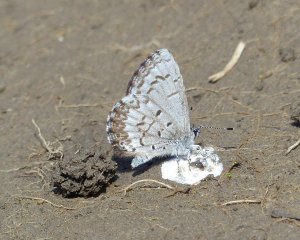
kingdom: Animalia
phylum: Arthropoda
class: Insecta
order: Lepidoptera
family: Lycaenidae
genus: Celastrina
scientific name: Celastrina lucia
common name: Northern Spring Azure
